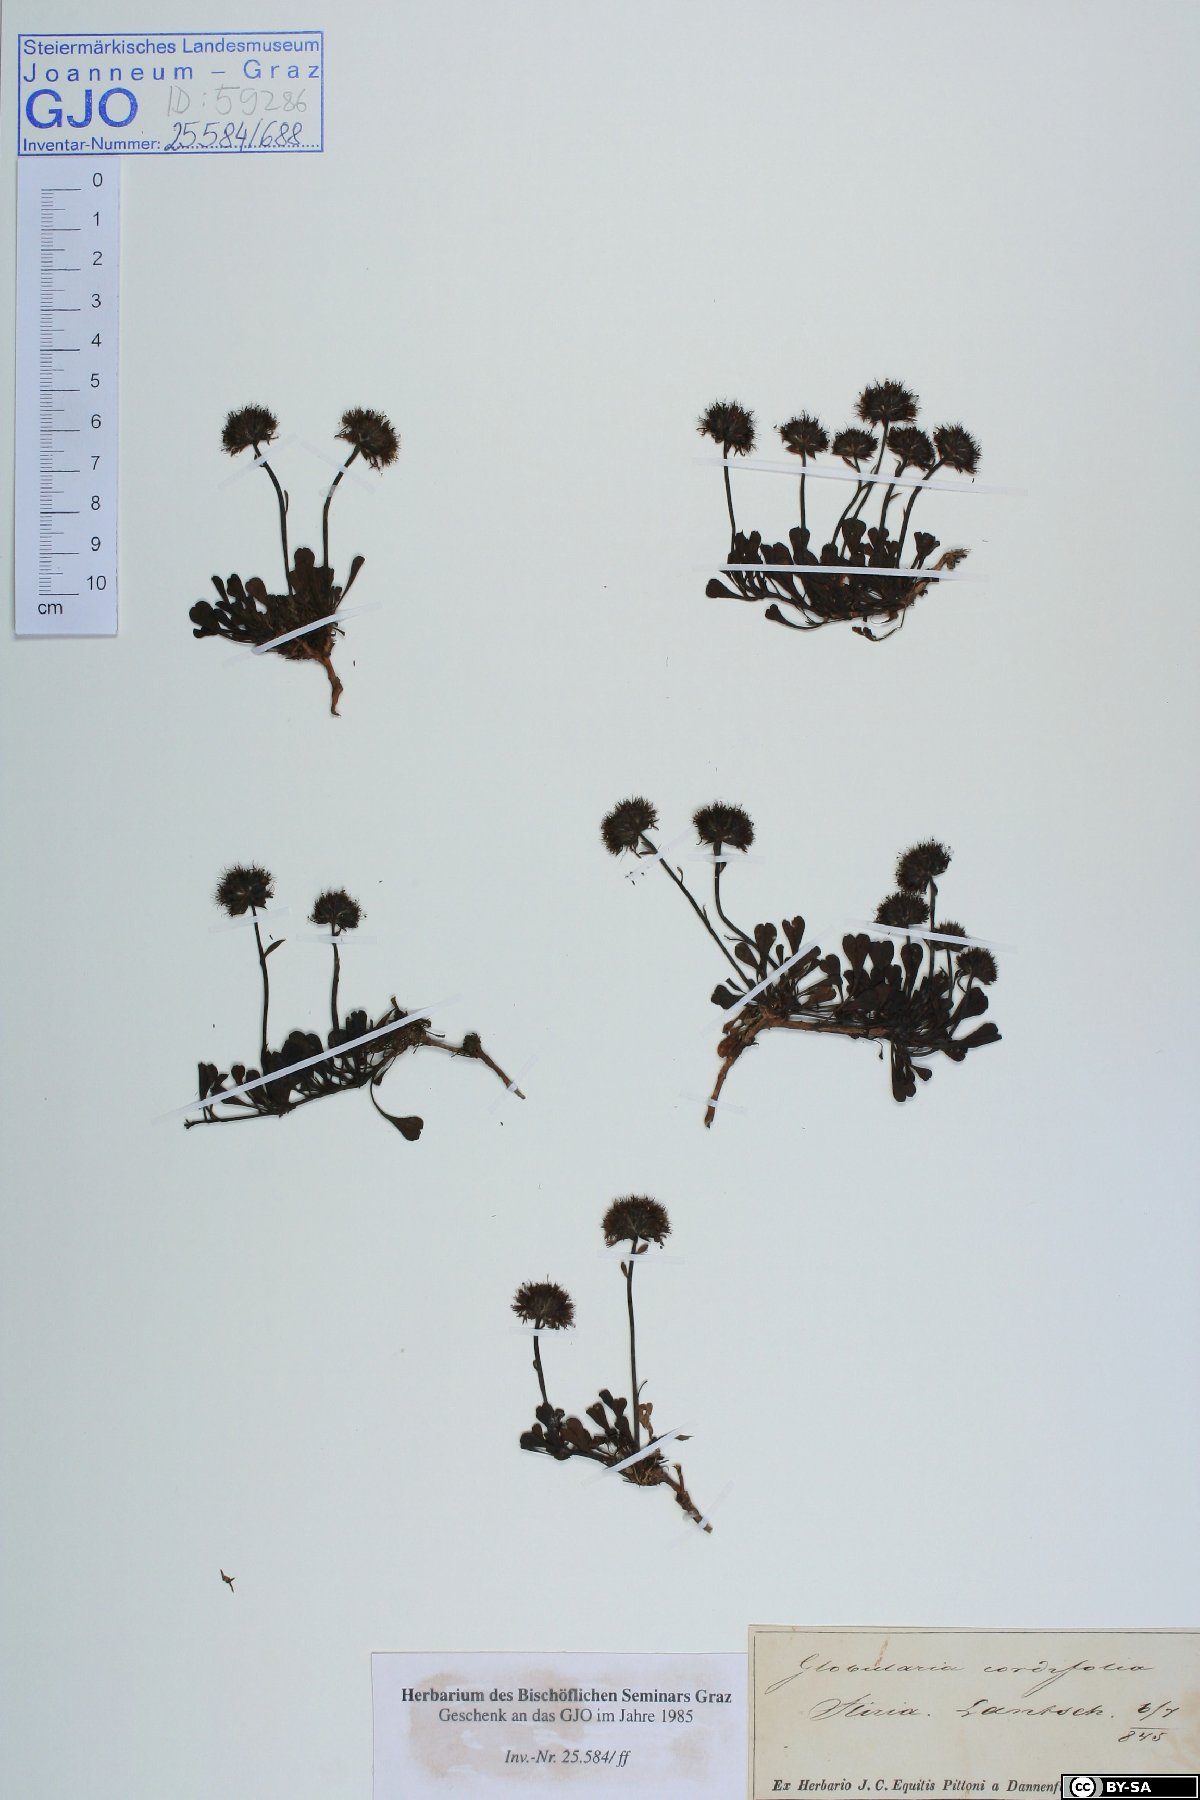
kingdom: Plantae
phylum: Tracheophyta
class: Magnoliopsida
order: Lamiales
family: Plantaginaceae
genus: Globularia
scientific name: Globularia cordifolia
